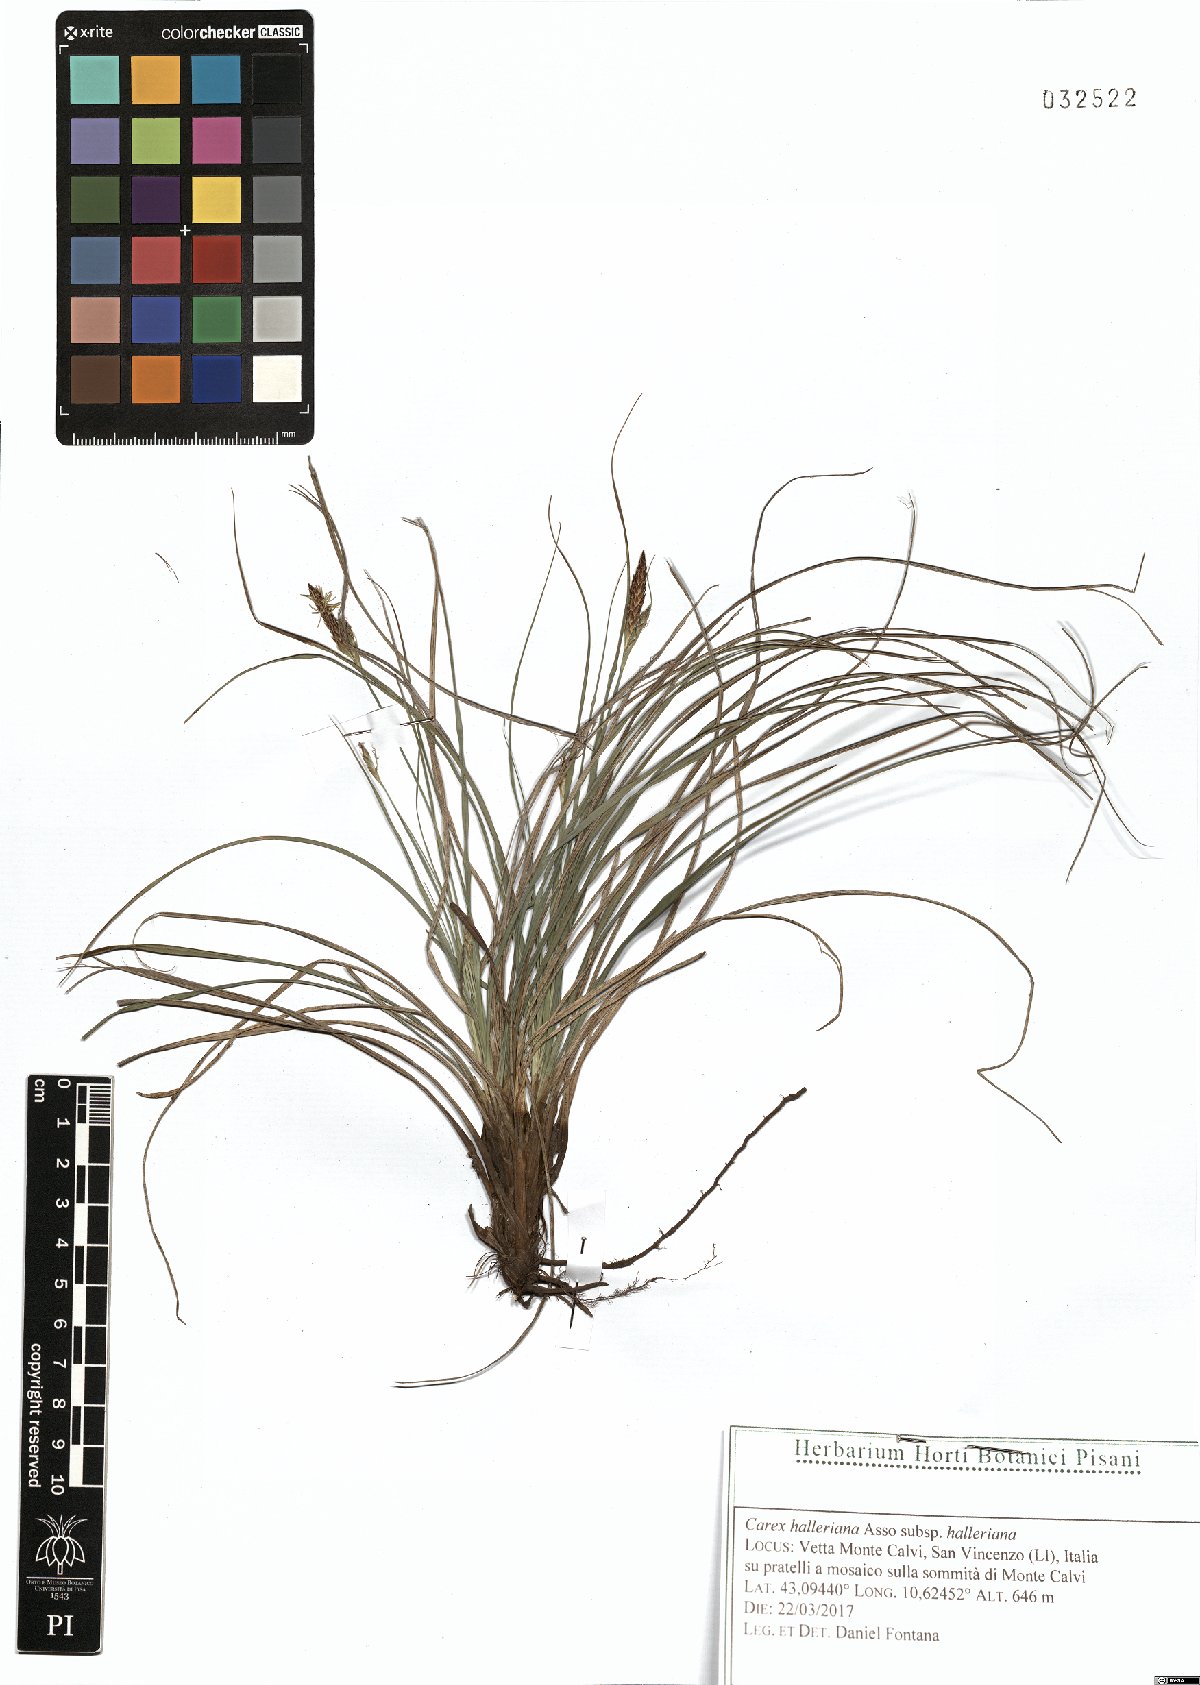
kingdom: Plantae
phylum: Tracheophyta
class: Liliopsida
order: Poales
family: Cyperaceae
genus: Carex
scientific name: Carex halleriana
